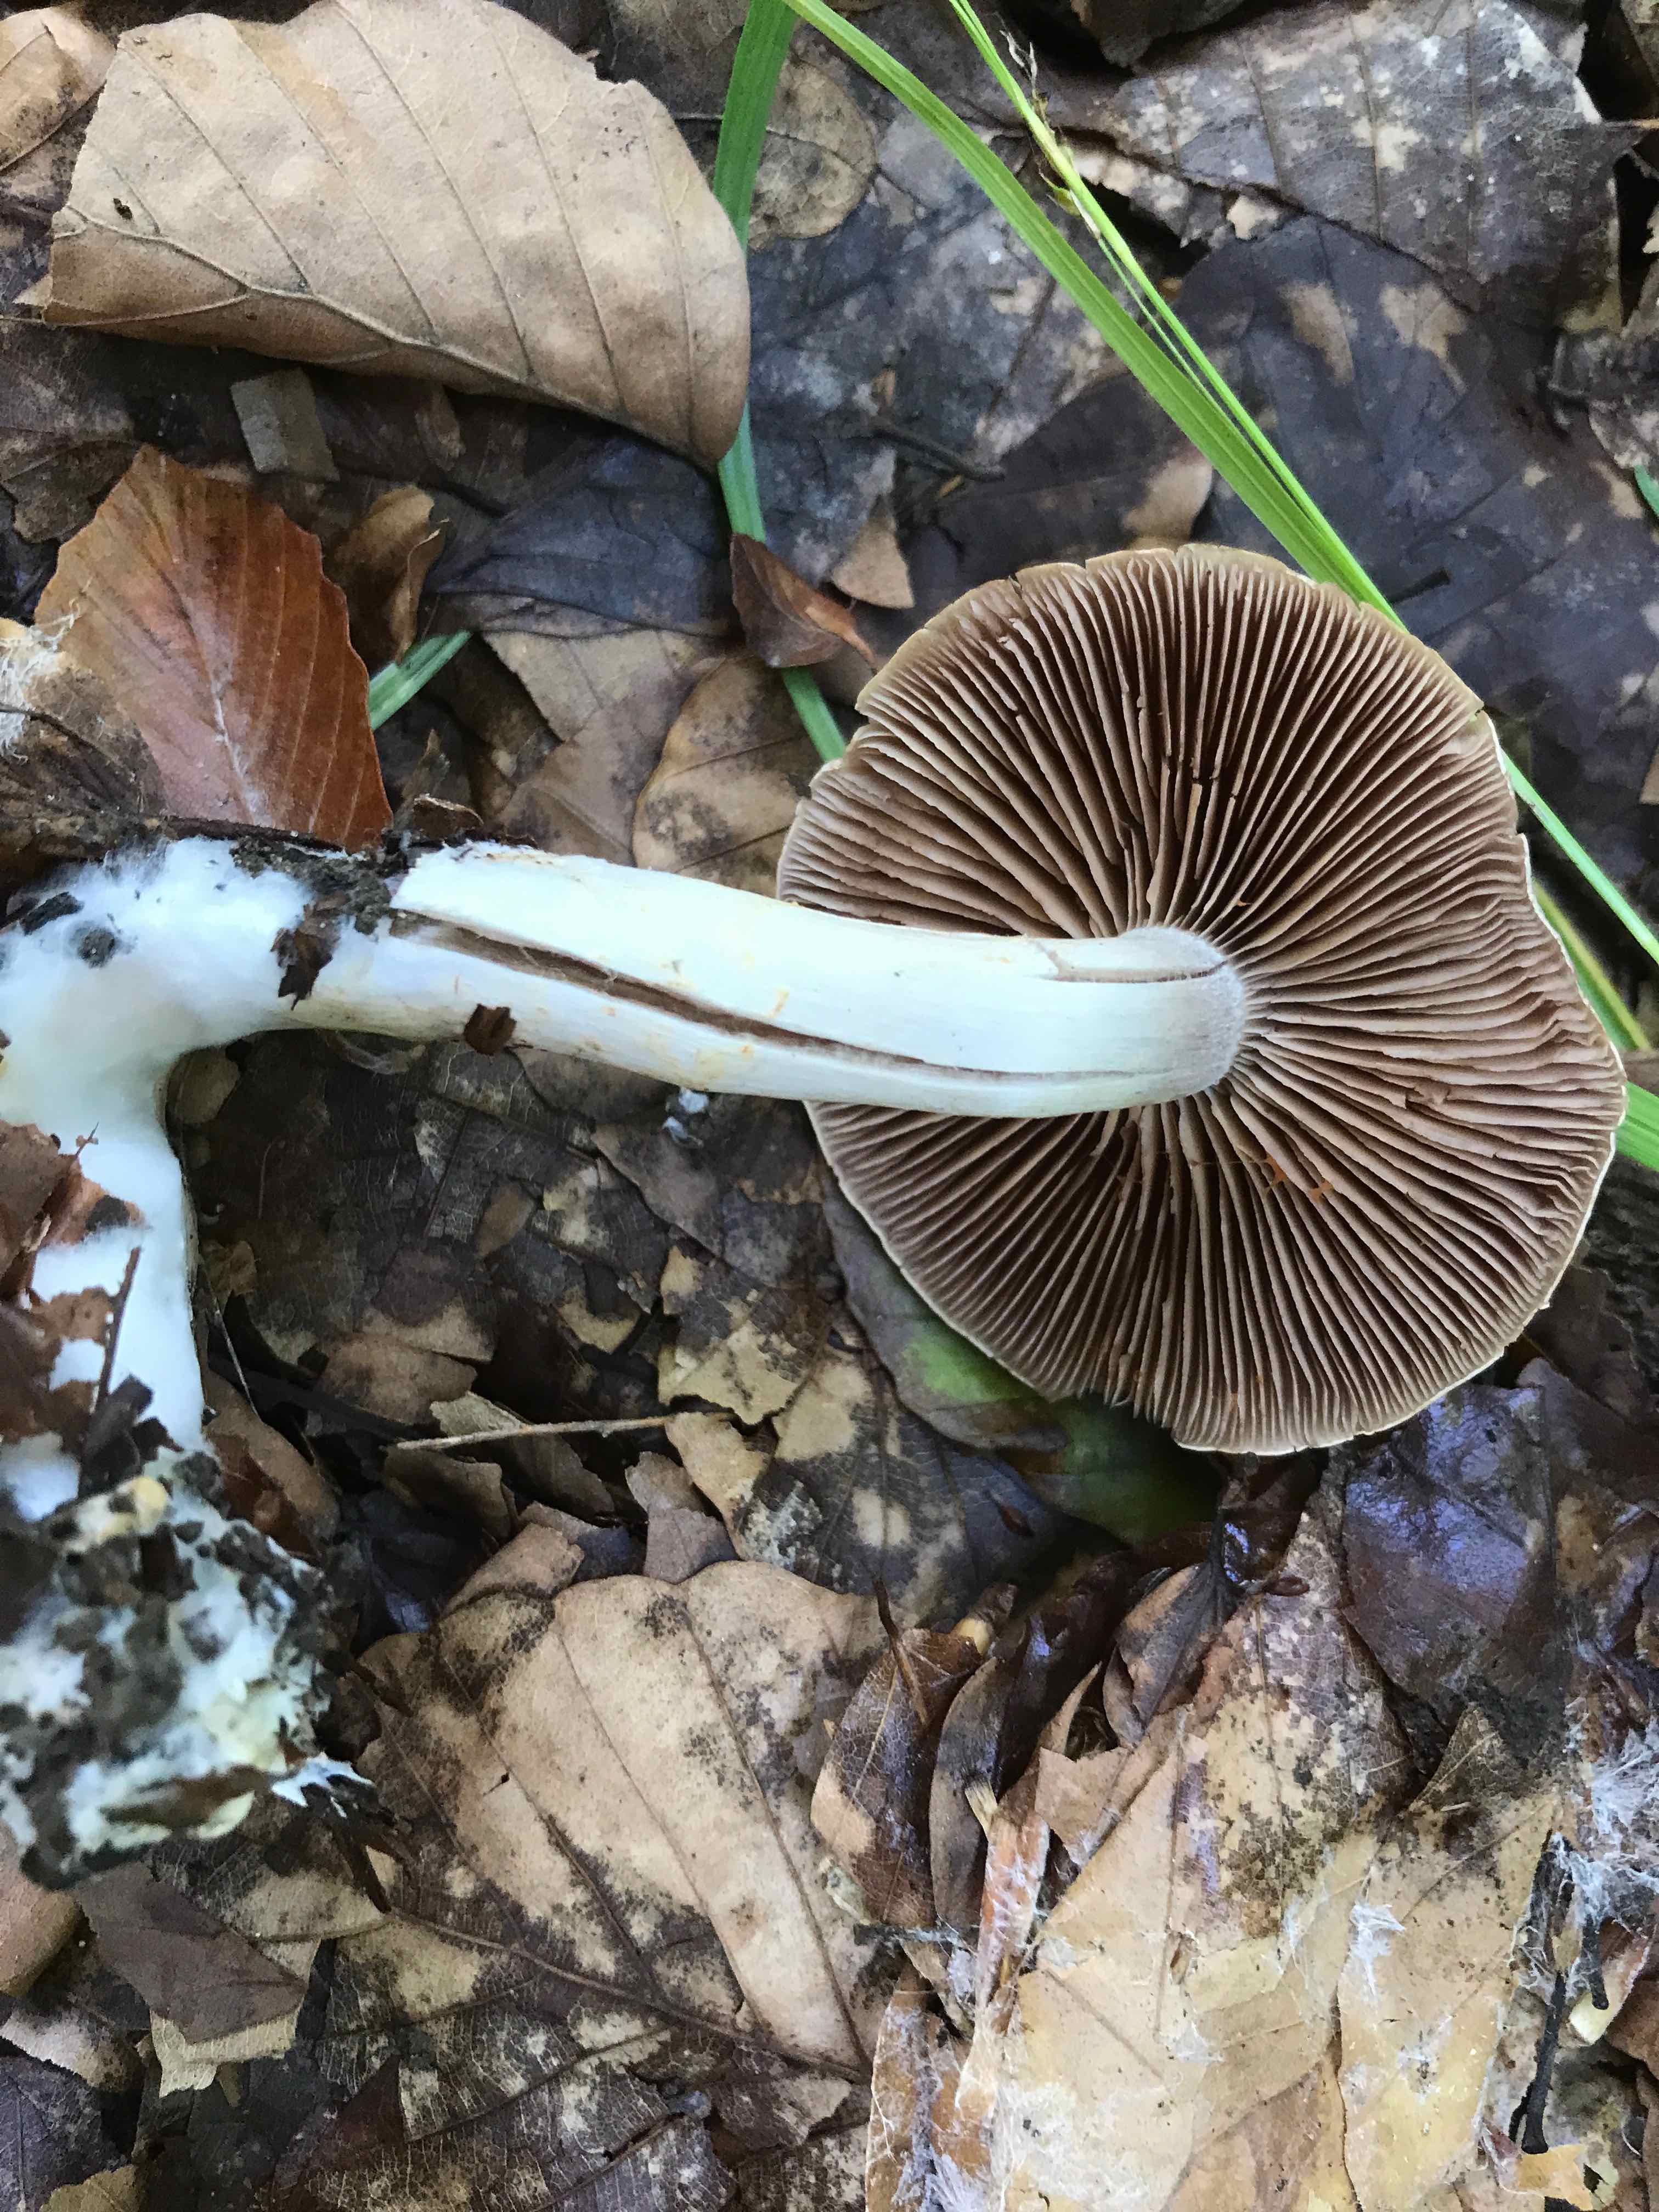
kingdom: Fungi
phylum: Basidiomycota
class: Agaricomycetes
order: Agaricales
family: Cortinariaceae
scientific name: Cortinariaceae
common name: slørhatfamilien
